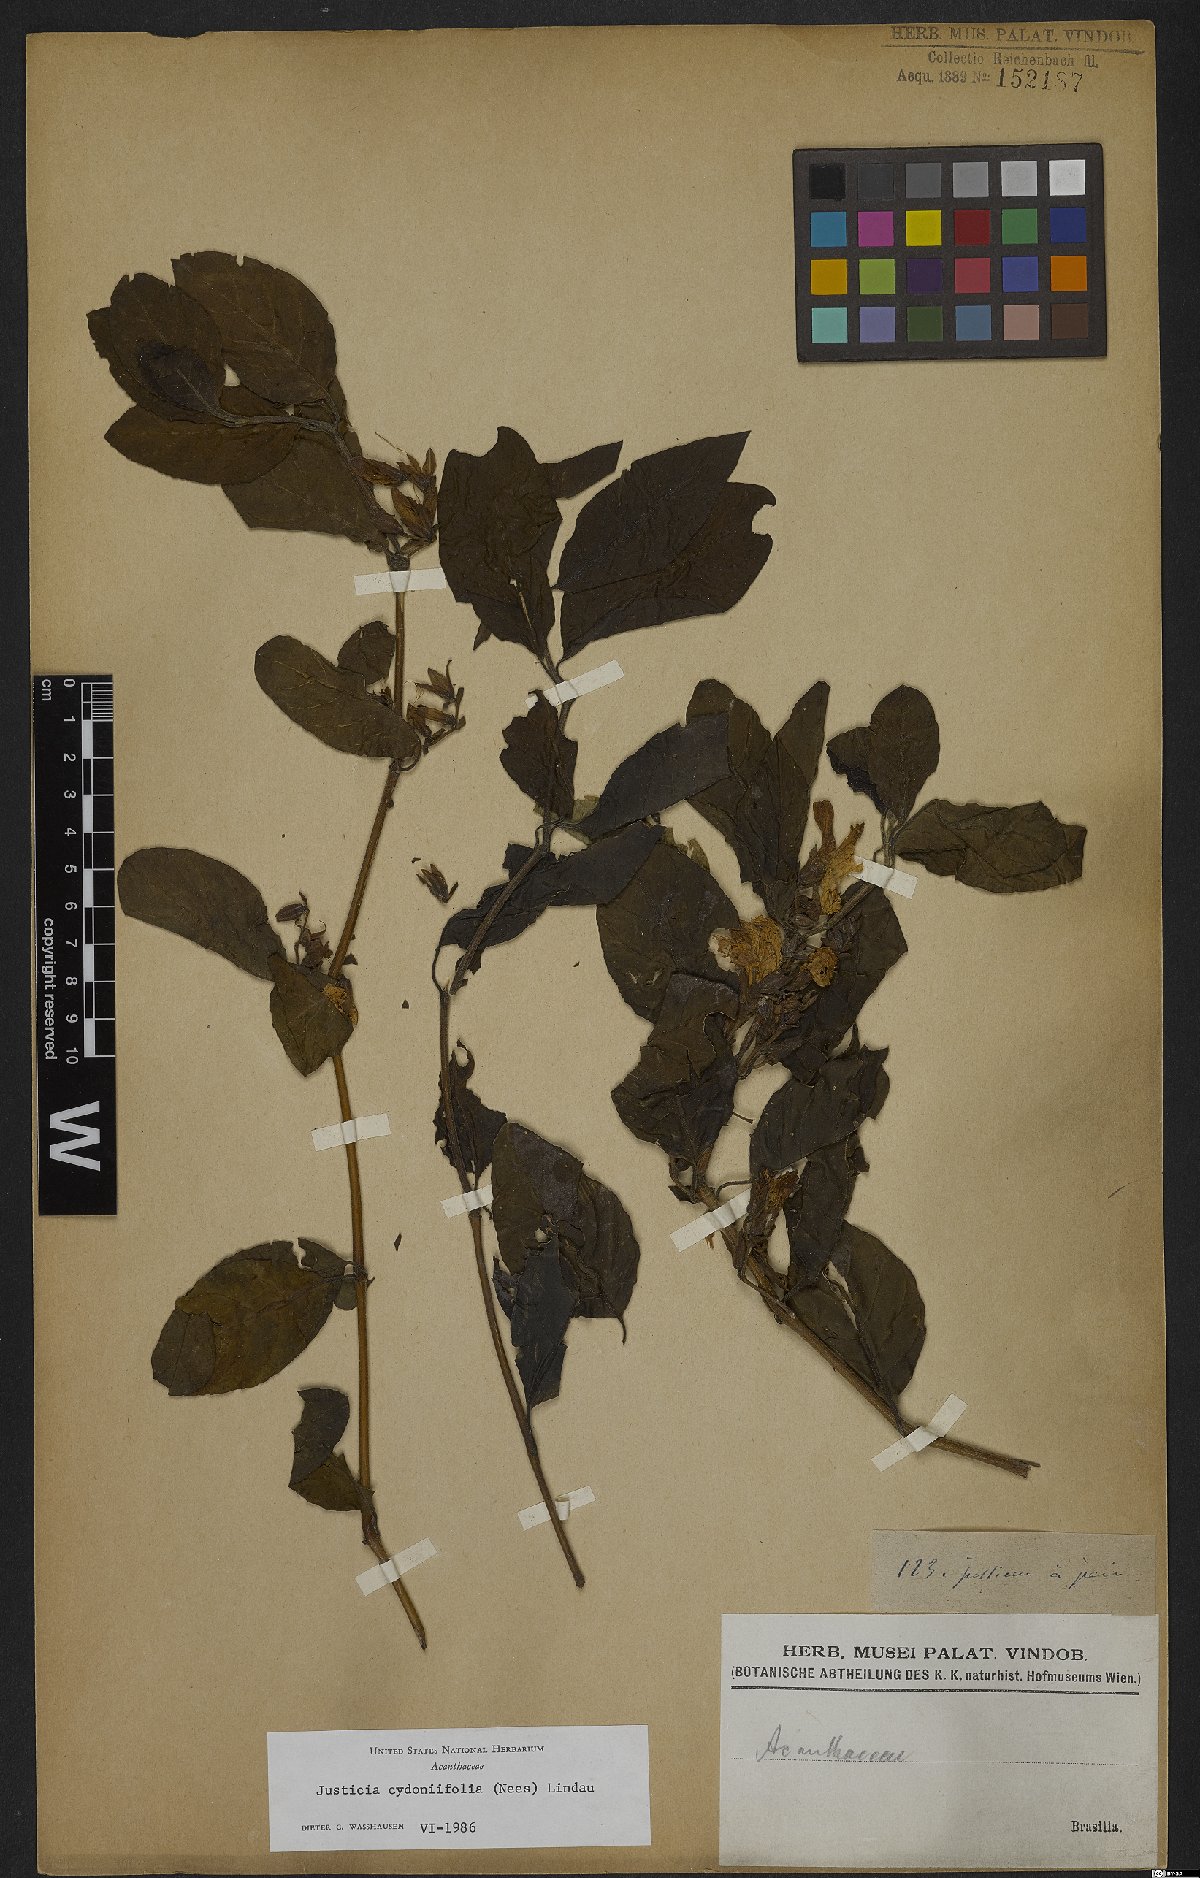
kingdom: Plantae
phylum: Tracheophyta
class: Magnoliopsida
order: Lamiales
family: Acanthaceae
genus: Justicia
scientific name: Justicia cydoniifolia
